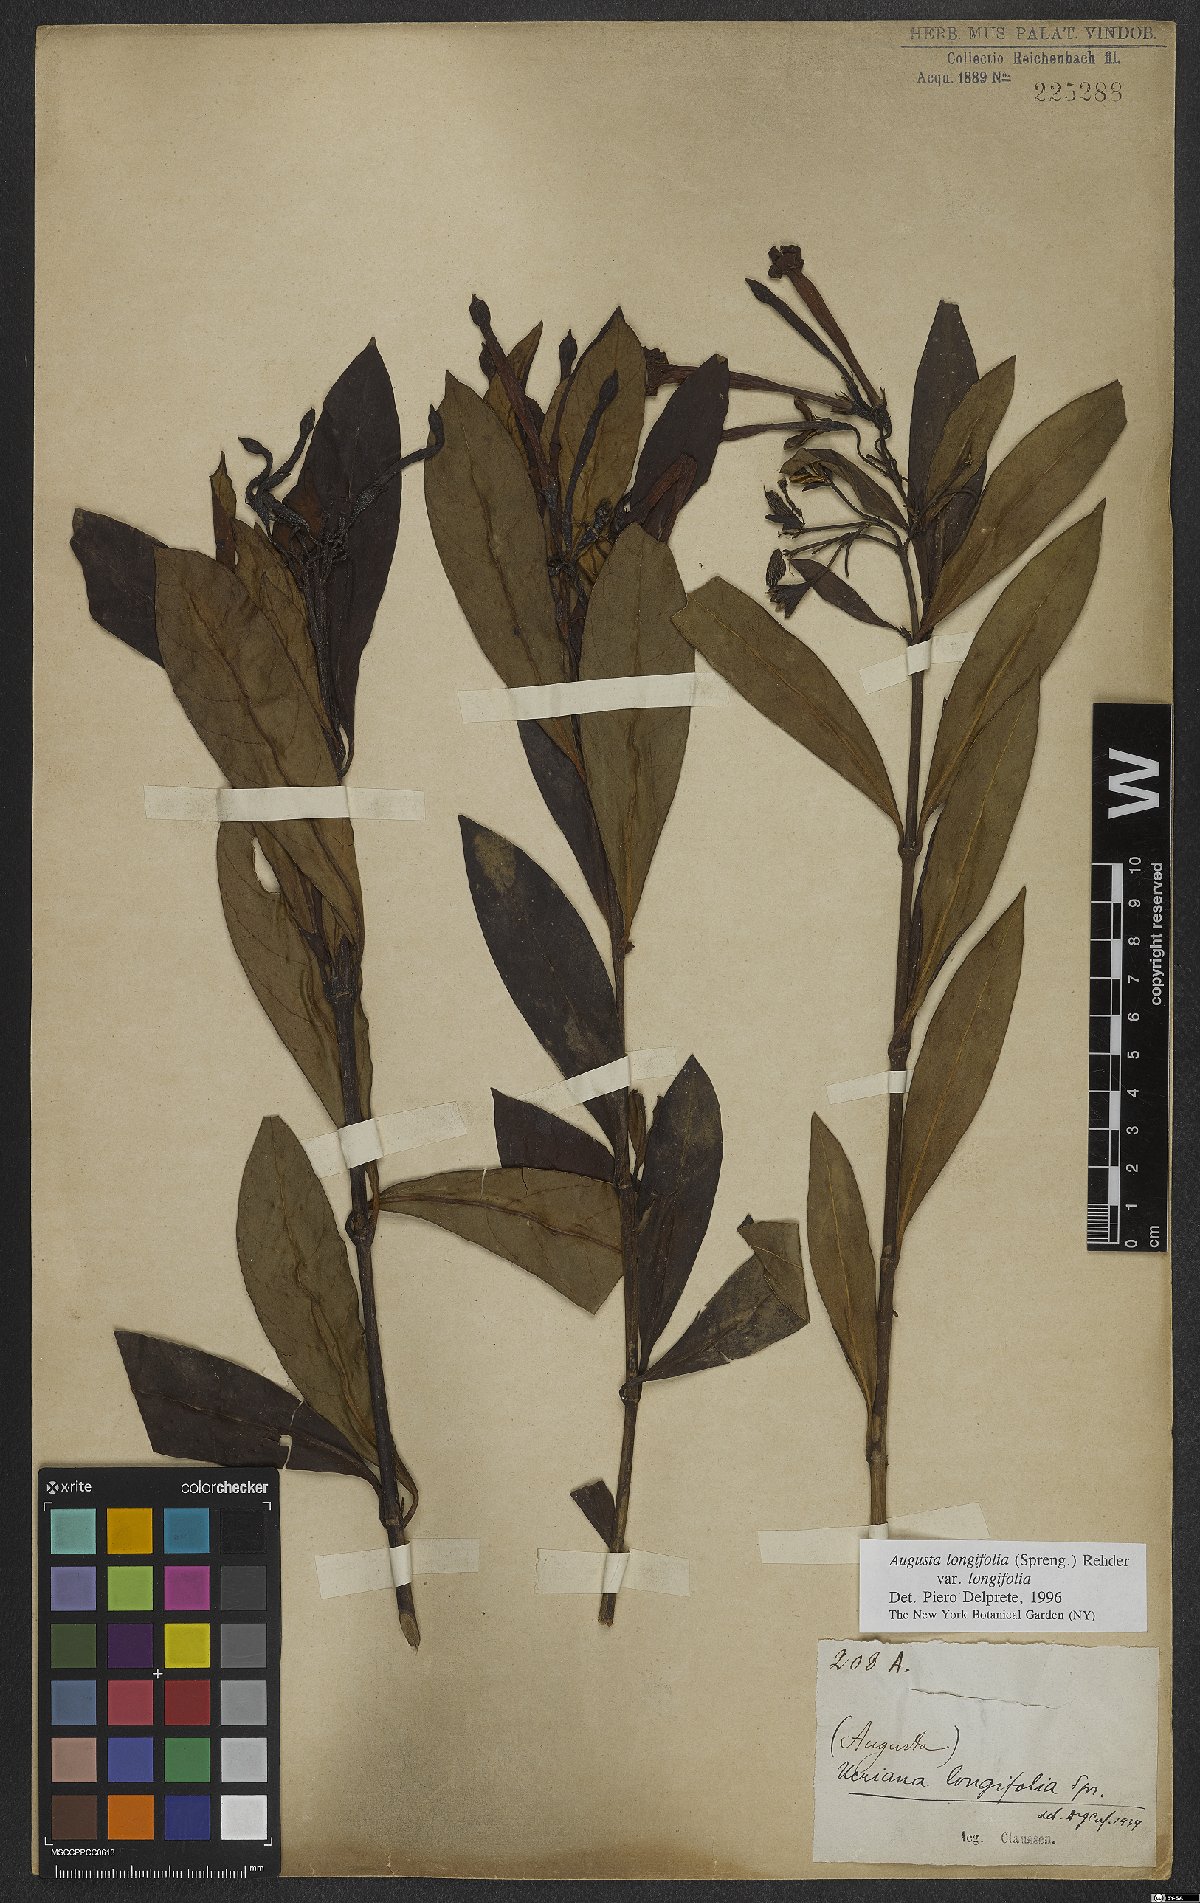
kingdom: Plantae
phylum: Tracheophyta
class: Magnoliopsida
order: Gentianales
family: Rubiaceae
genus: Augusta
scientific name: Augusta longifolia
